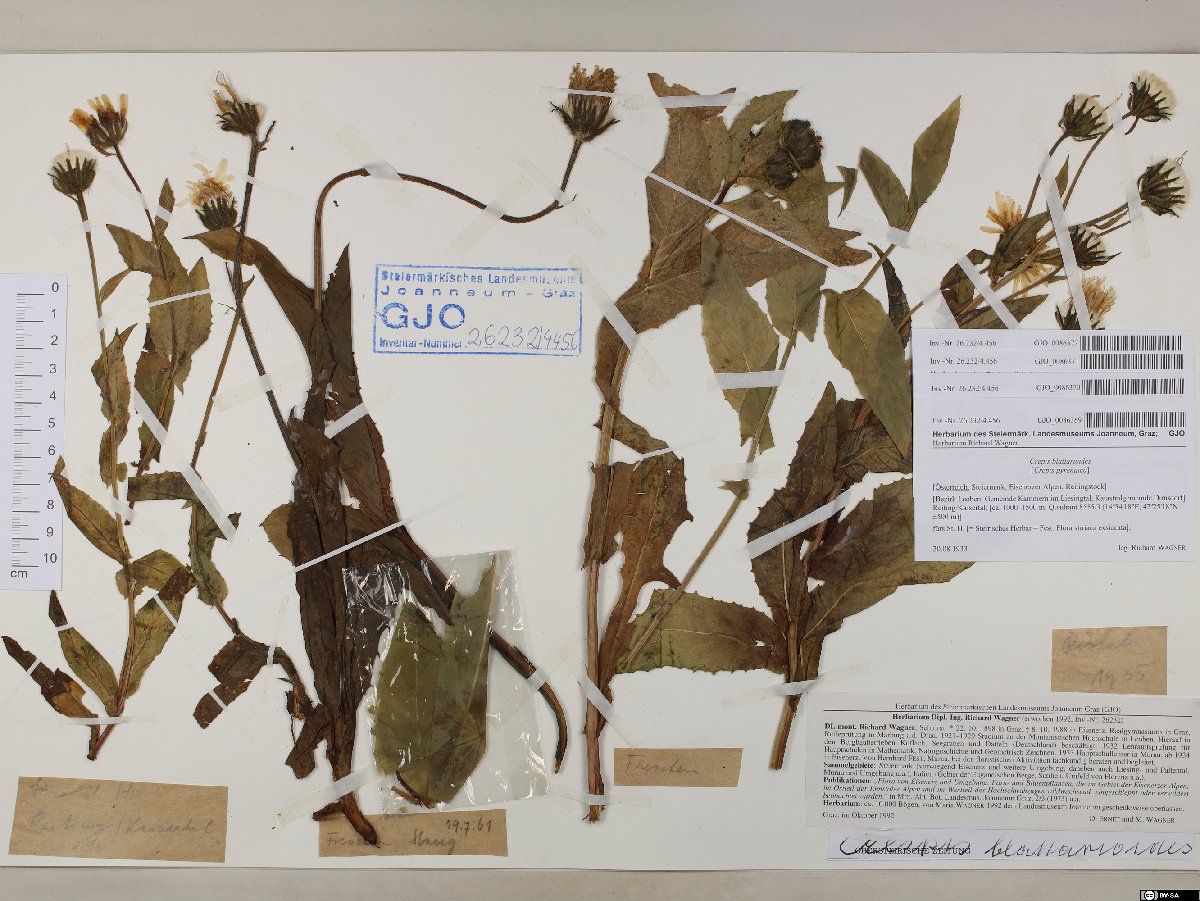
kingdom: Plantae
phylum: Tracheophyta
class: Magnoliopsida
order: Asterales
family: Asteraceae
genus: Crepis
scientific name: Crepis blattarioides
